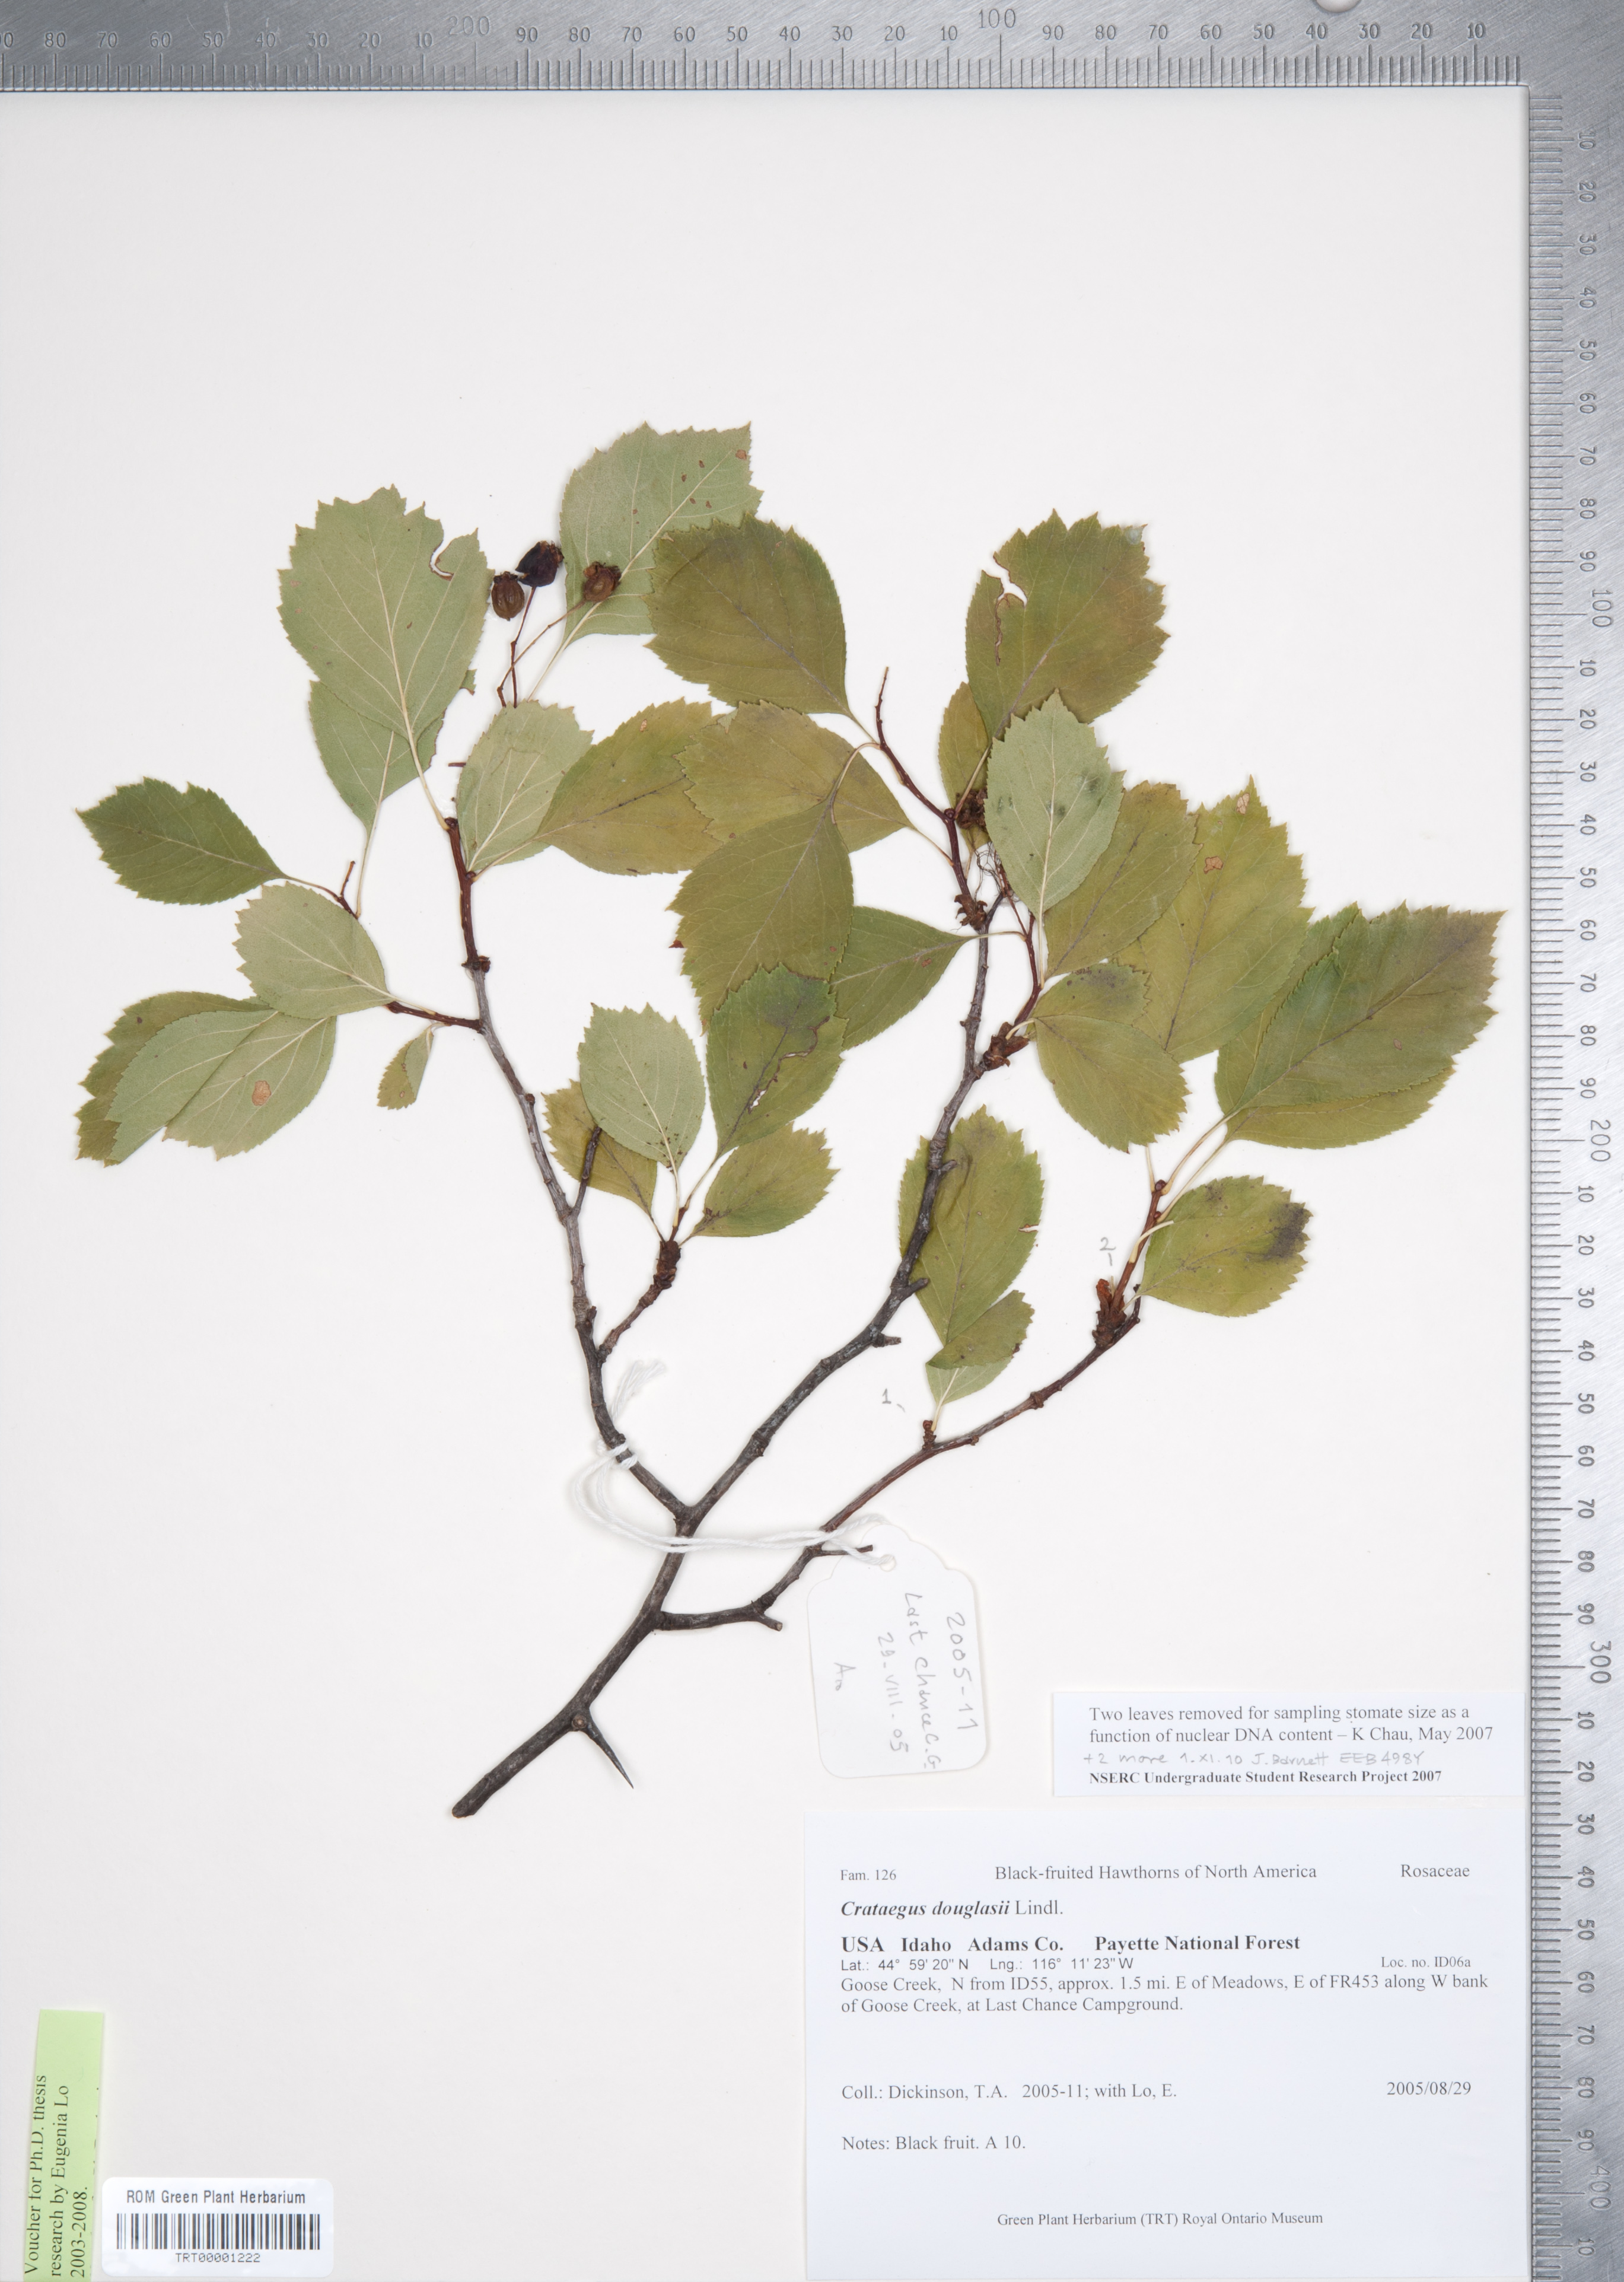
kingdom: Plantae
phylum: Tracheophyta
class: Magnoliopsida
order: Rosales
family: Rosaceae
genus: Crataegus
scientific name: Crataegus douglasii
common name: Black hawthorn
